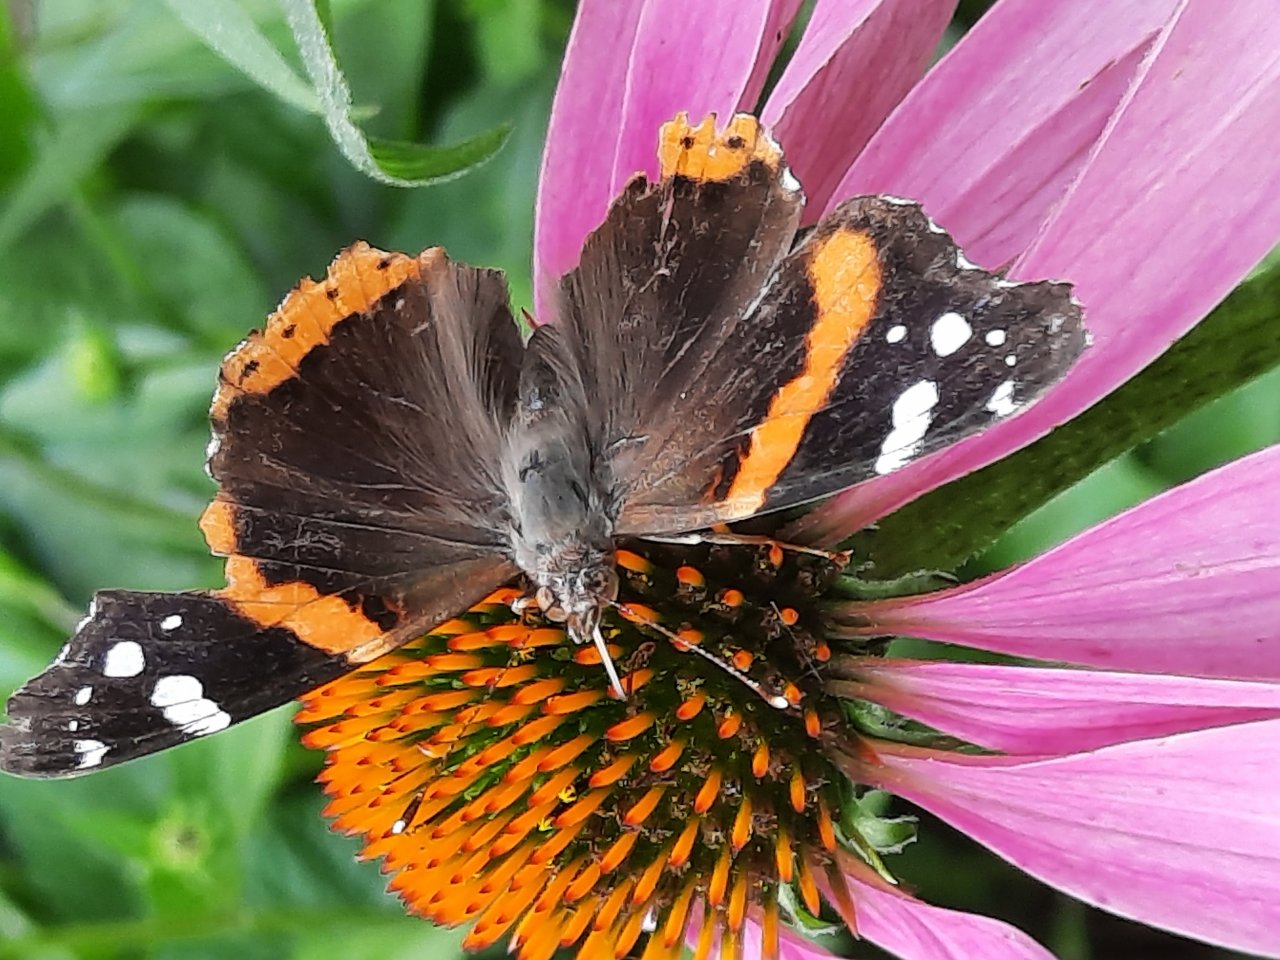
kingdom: Animalia
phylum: Arthropoda
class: Insecta
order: Lepidoptera
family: Nymphalidae
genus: Vanessa
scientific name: Vanessa atalanta
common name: Red Admiral
